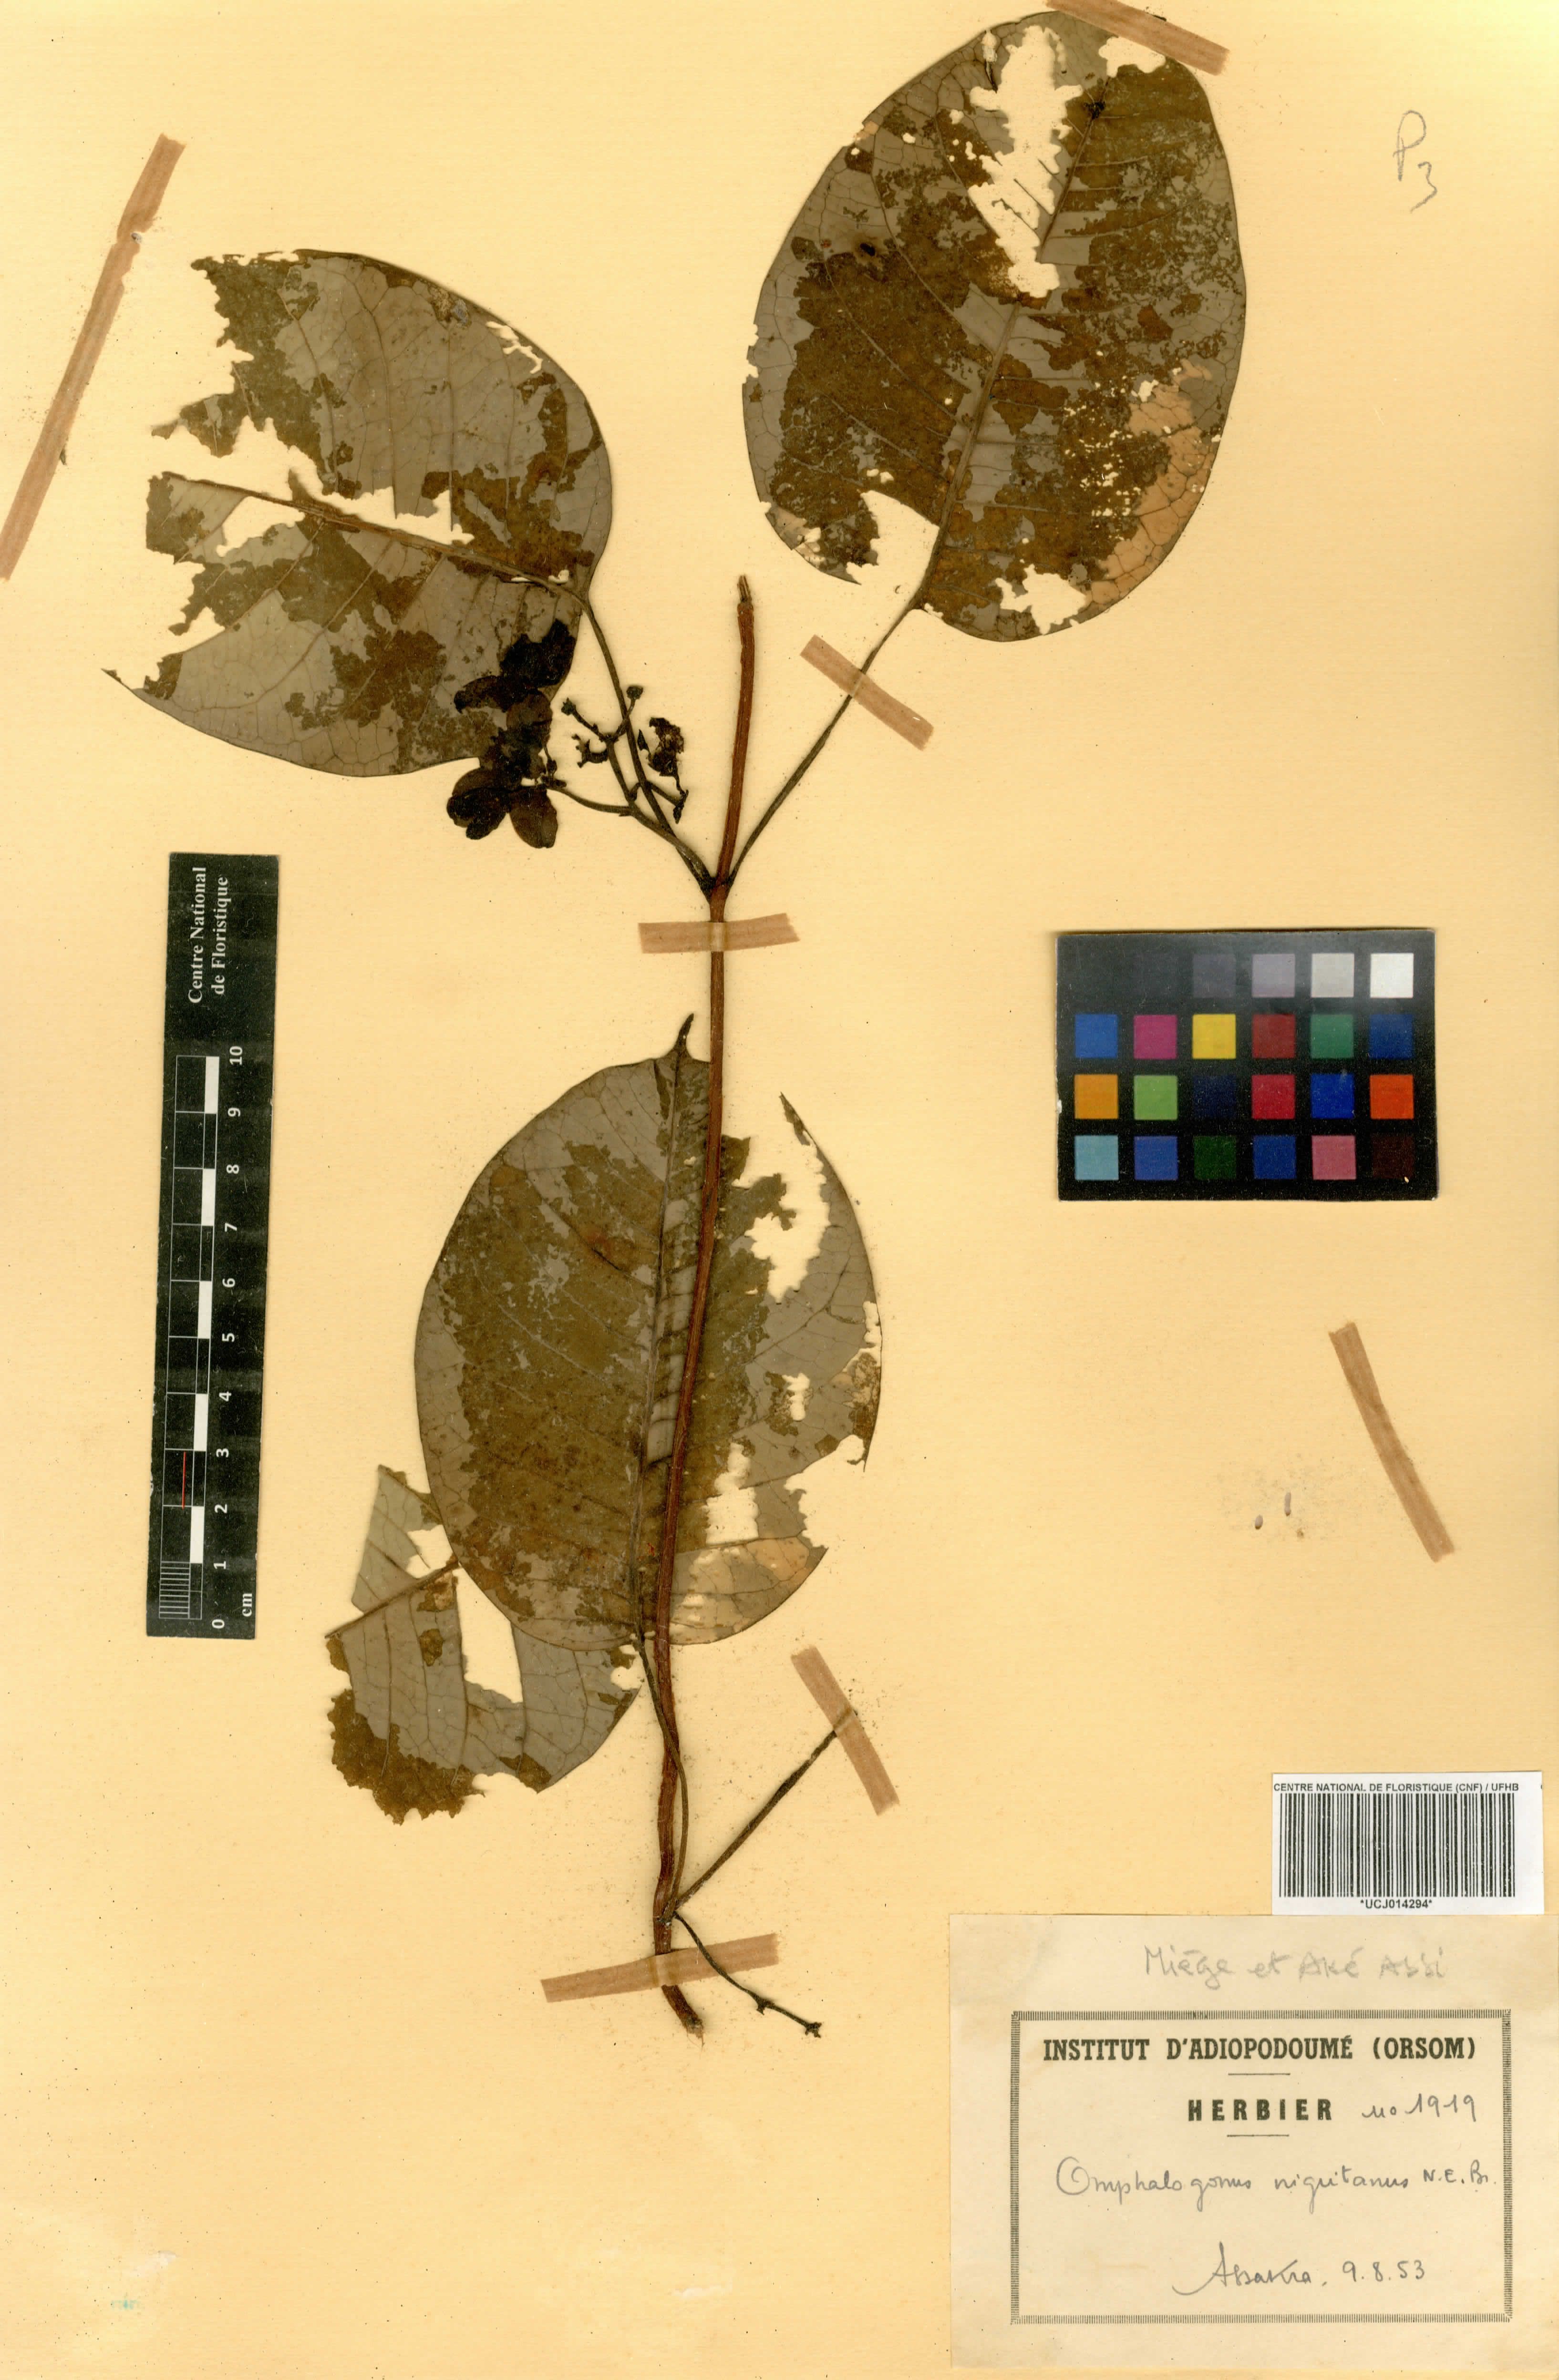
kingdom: Plantae
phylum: Tracheophyta
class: Magnoliopsida
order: Gentianales
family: Apocynaceae
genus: Cryptolepis
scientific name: Cryptolepis calophylla
